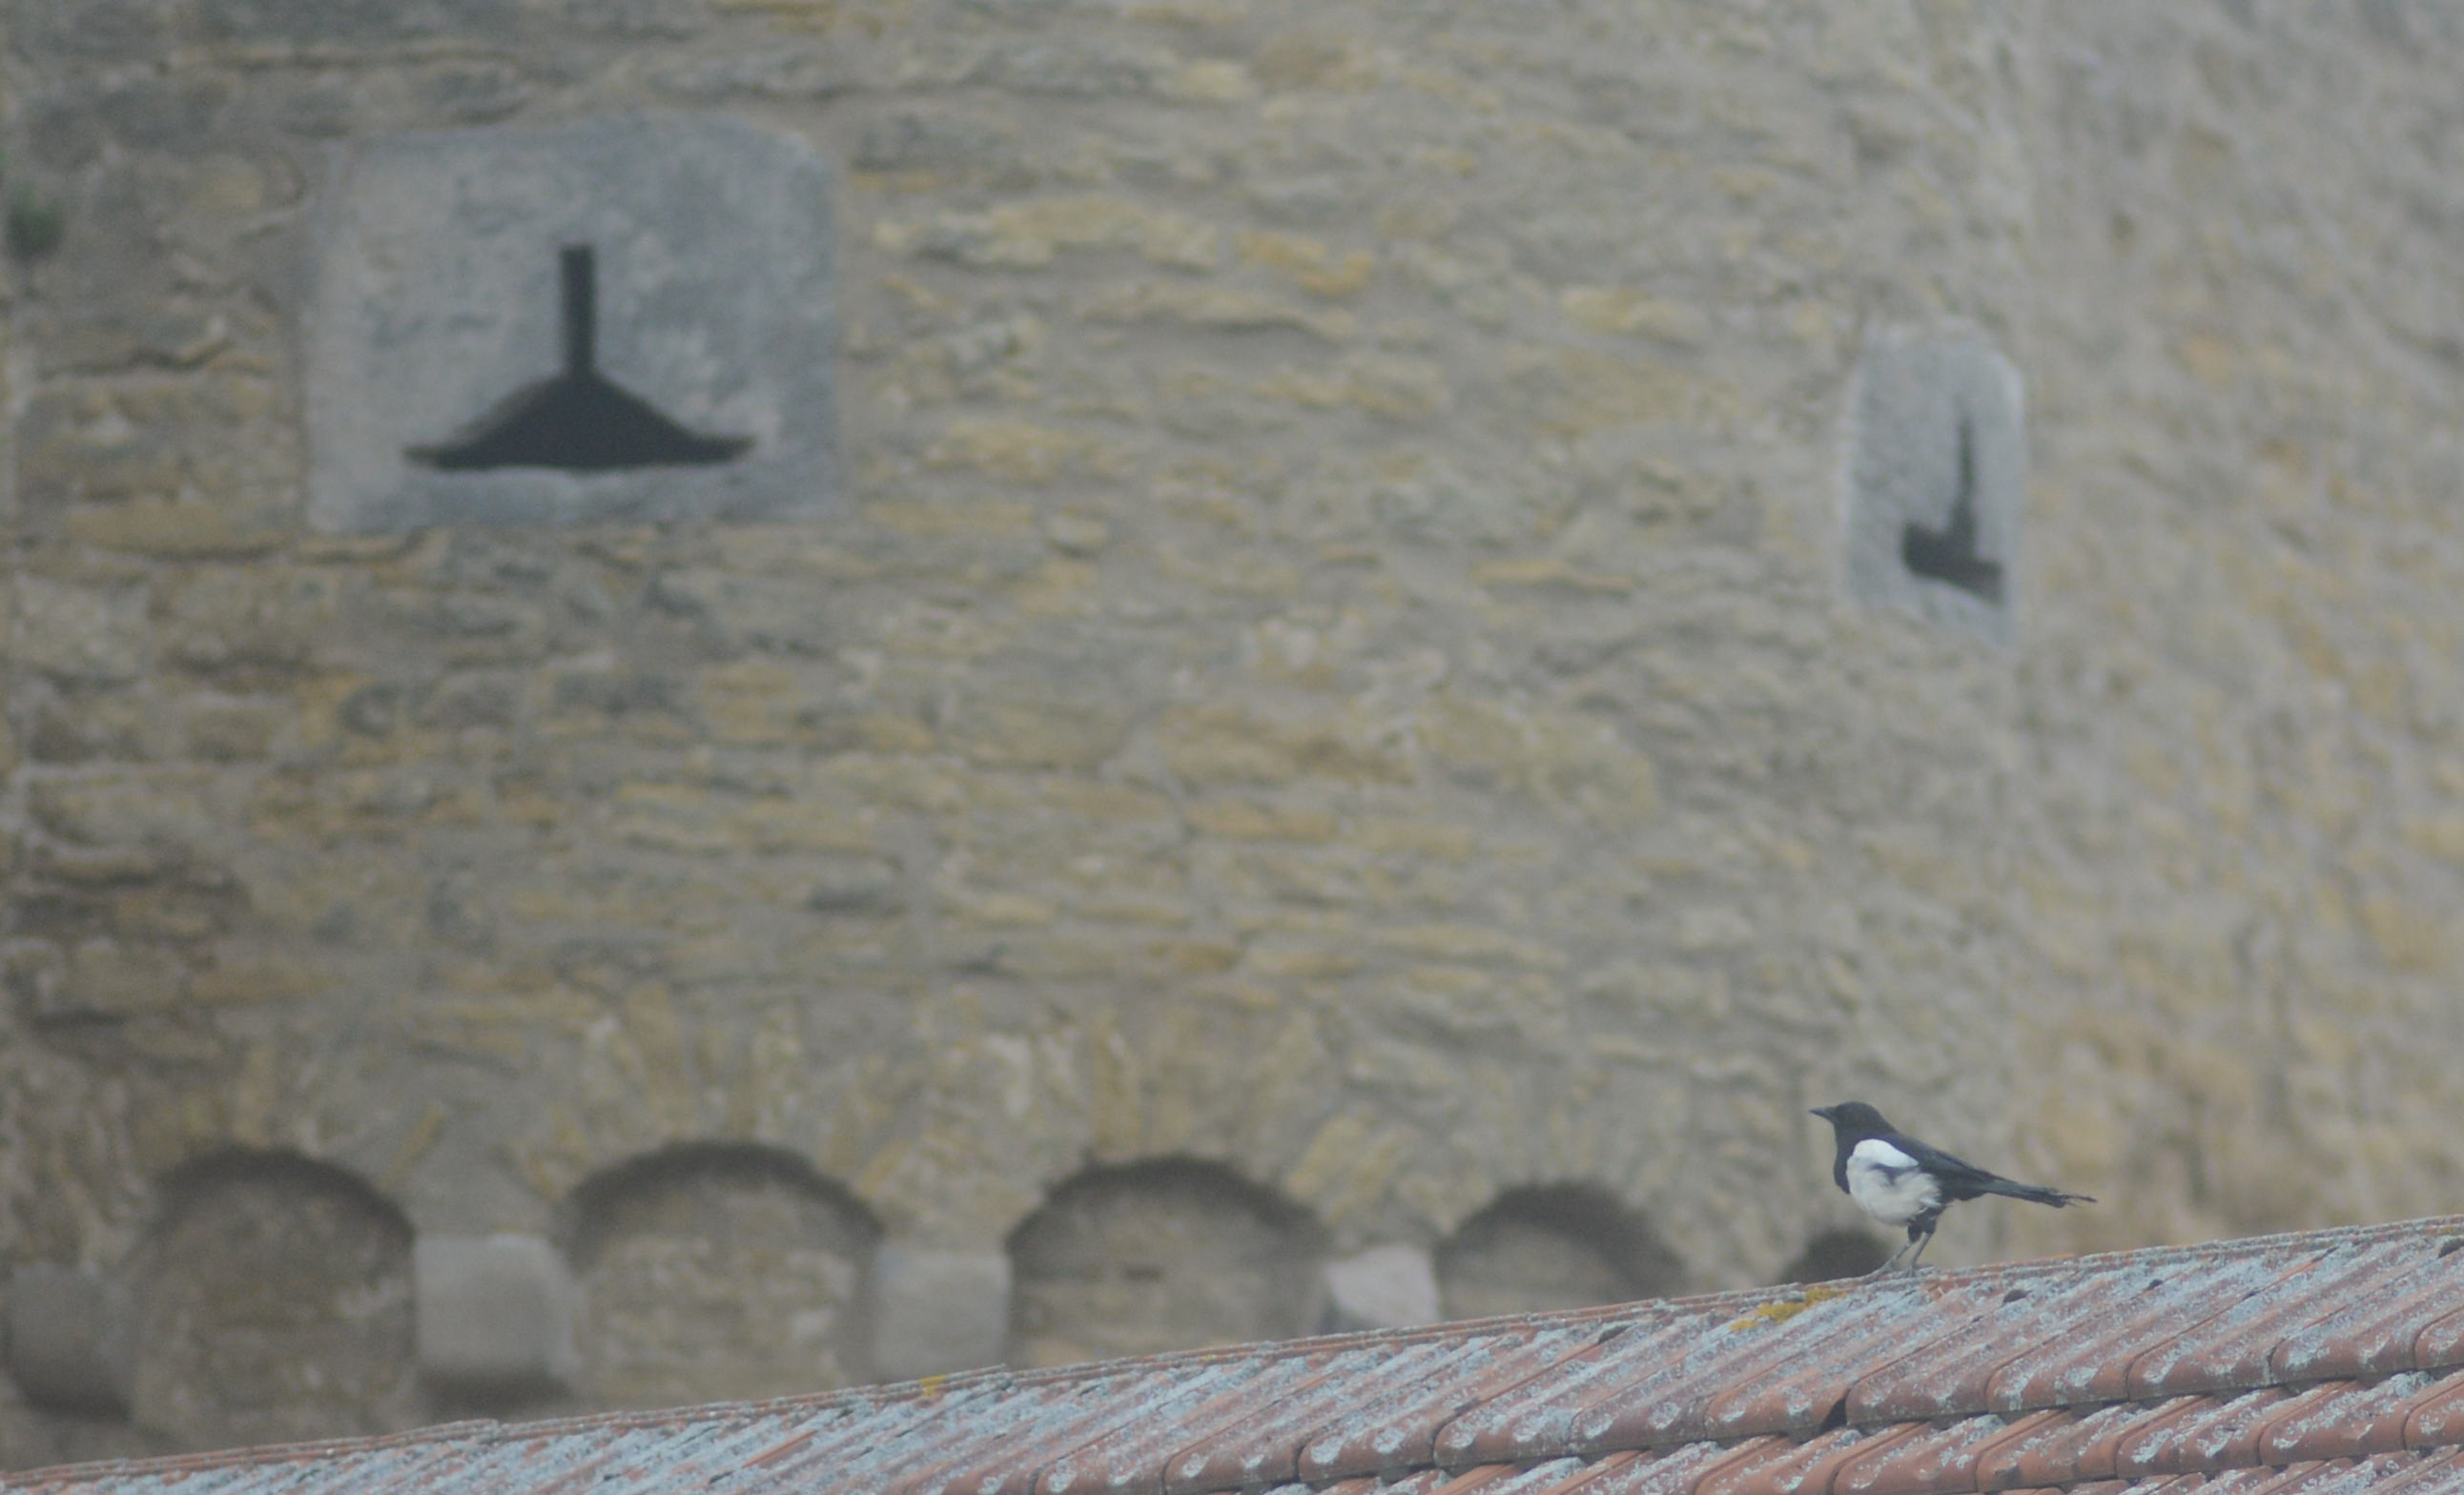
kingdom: Animalia
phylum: Chordata
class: Aves
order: Passeriformes
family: Corvidae
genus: Pica
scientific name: Pica pica
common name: Eurasian magpie
